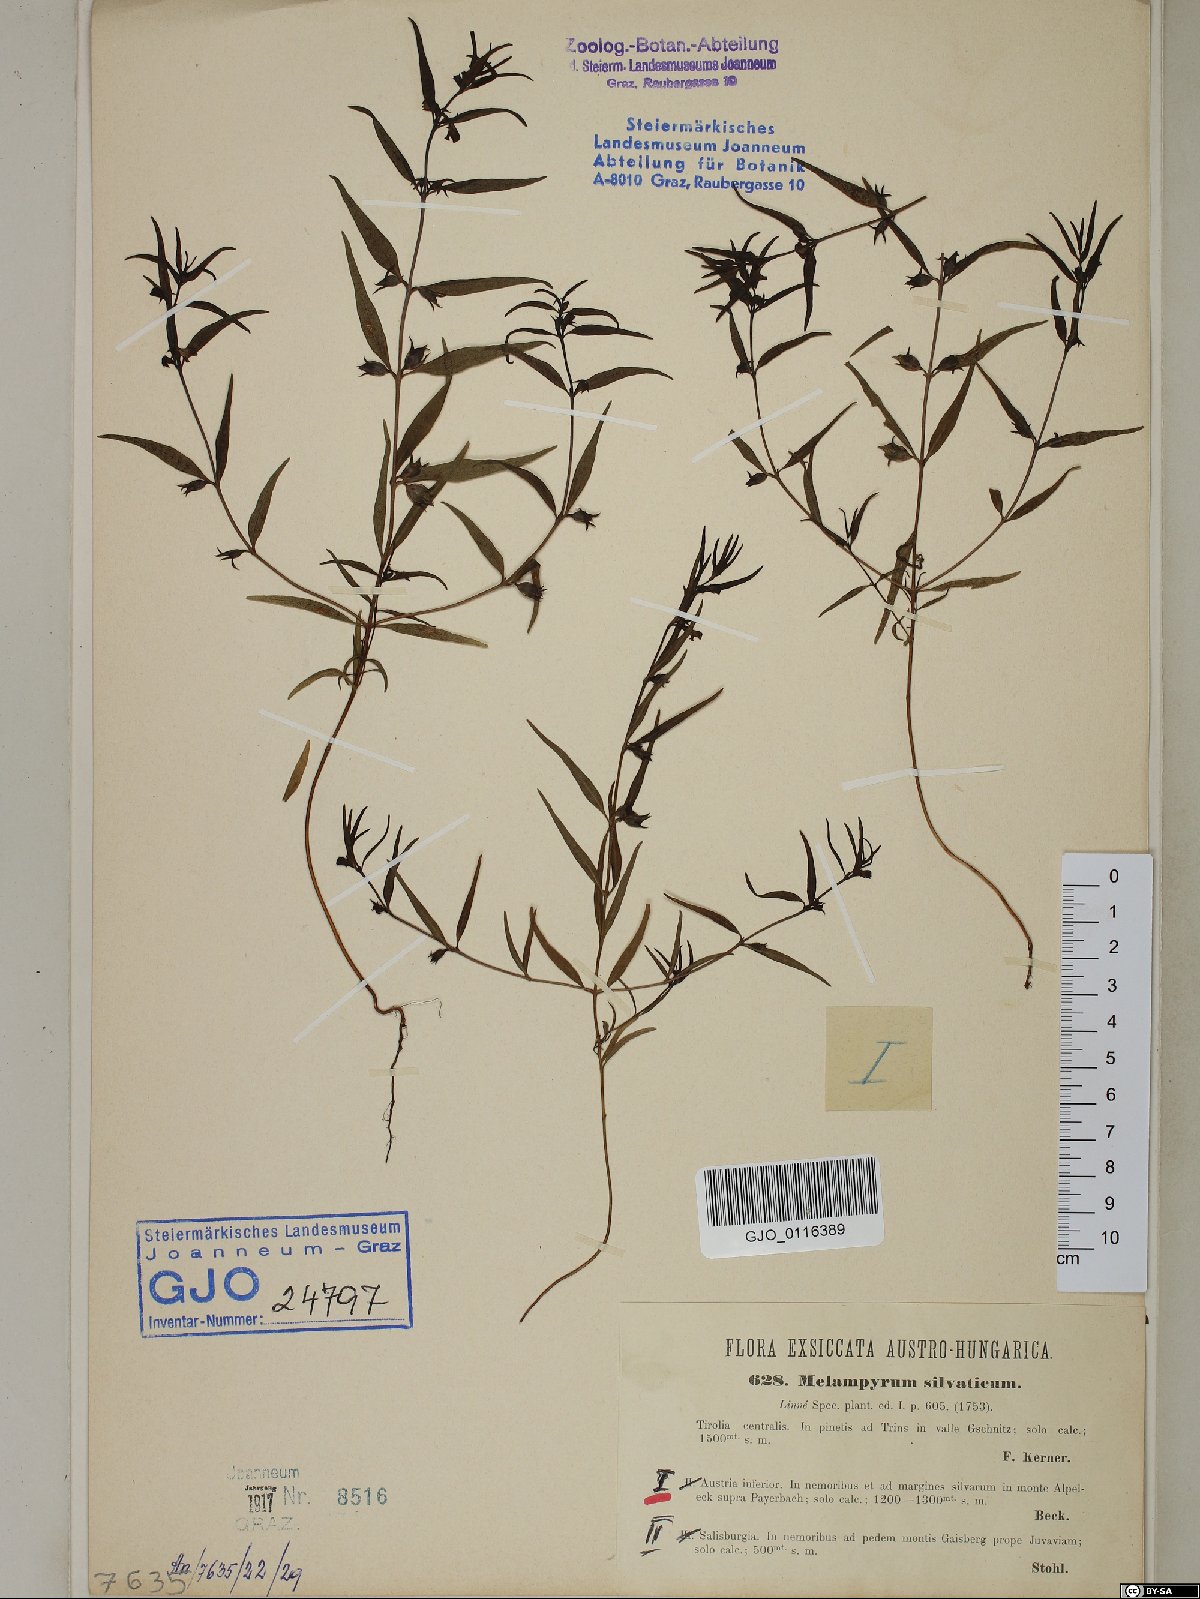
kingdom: Plantae
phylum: Tracheophyta
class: Magnoliopsida
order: Lamiales
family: Orobanchaceae
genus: Melampyrum
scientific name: Melampyrum sylvaticum
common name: Small cow-wheat
